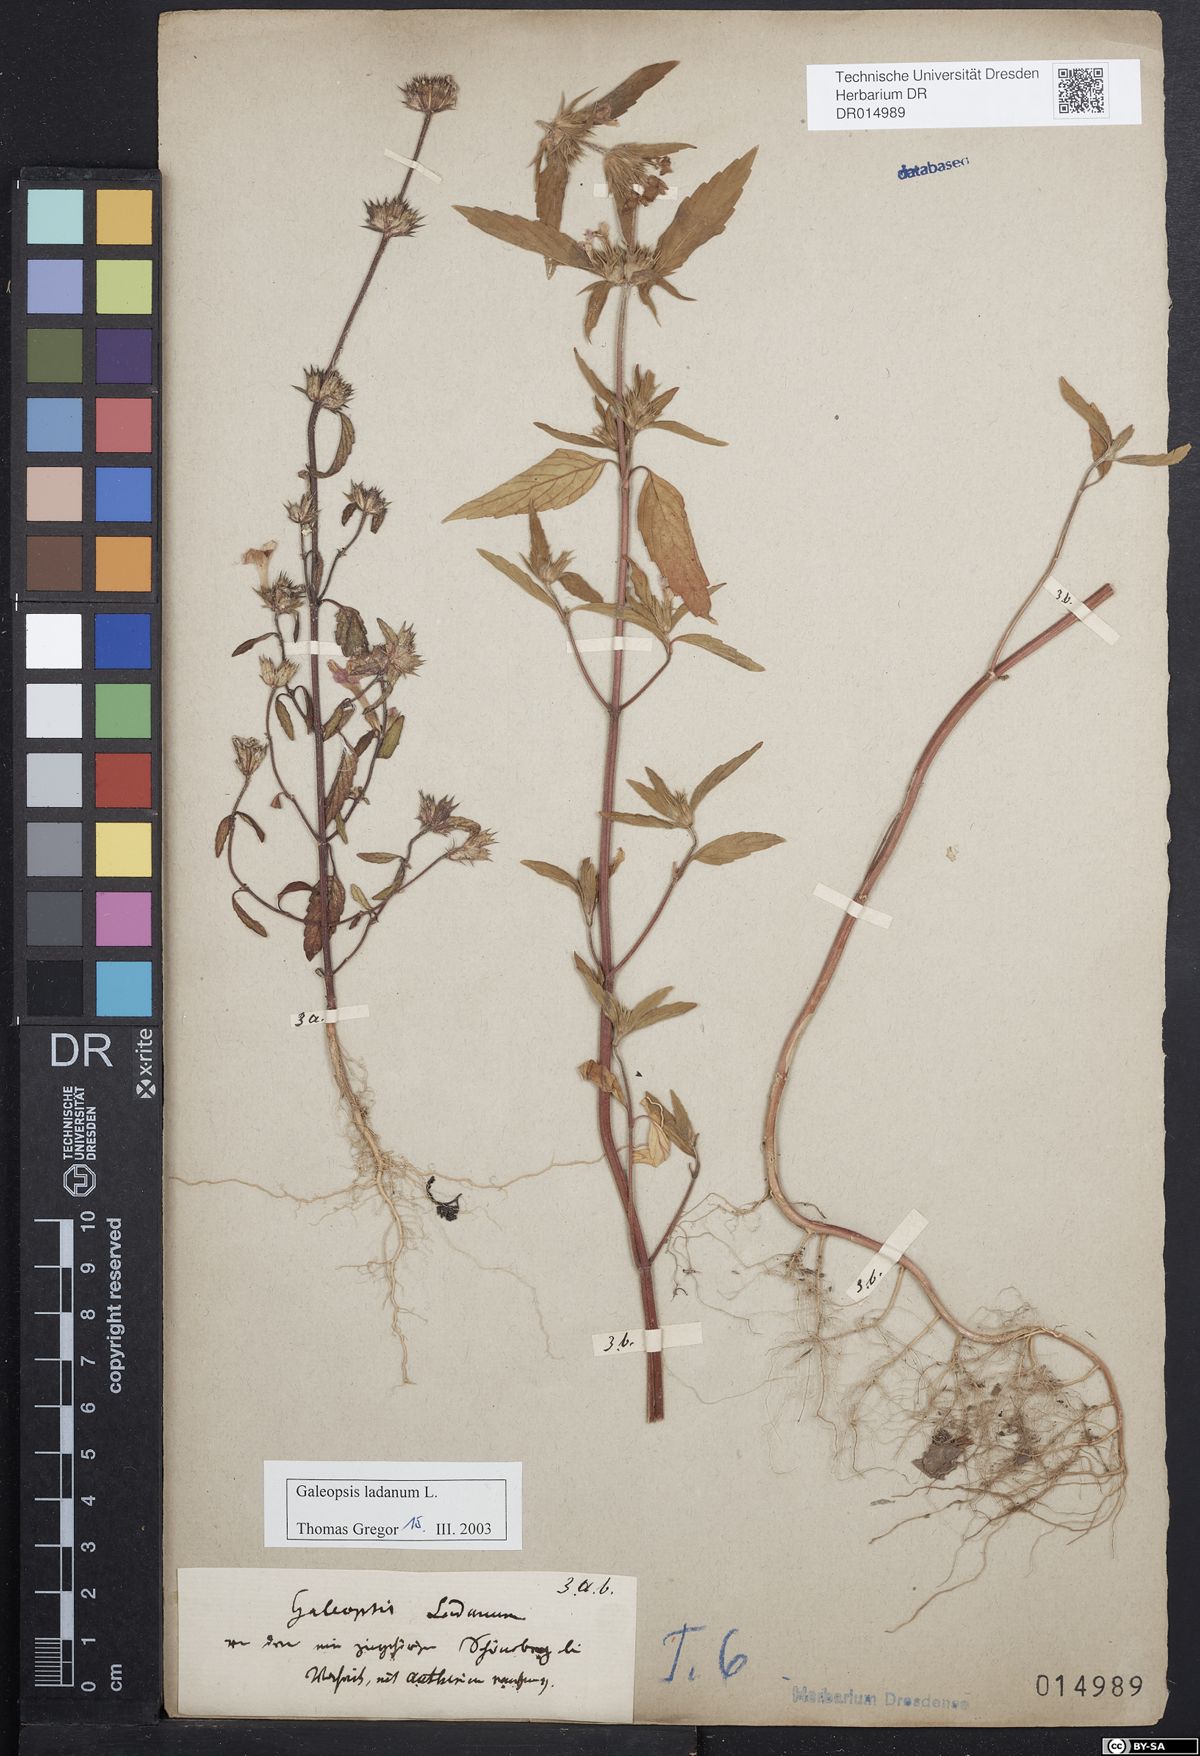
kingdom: Plantae
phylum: Tracheophyta
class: Magnoliopsida
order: Lamiales
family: Lamiaceae
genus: Galeopsis
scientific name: Galeopsis ladanum
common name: Broad-leaved hemp-nettle
